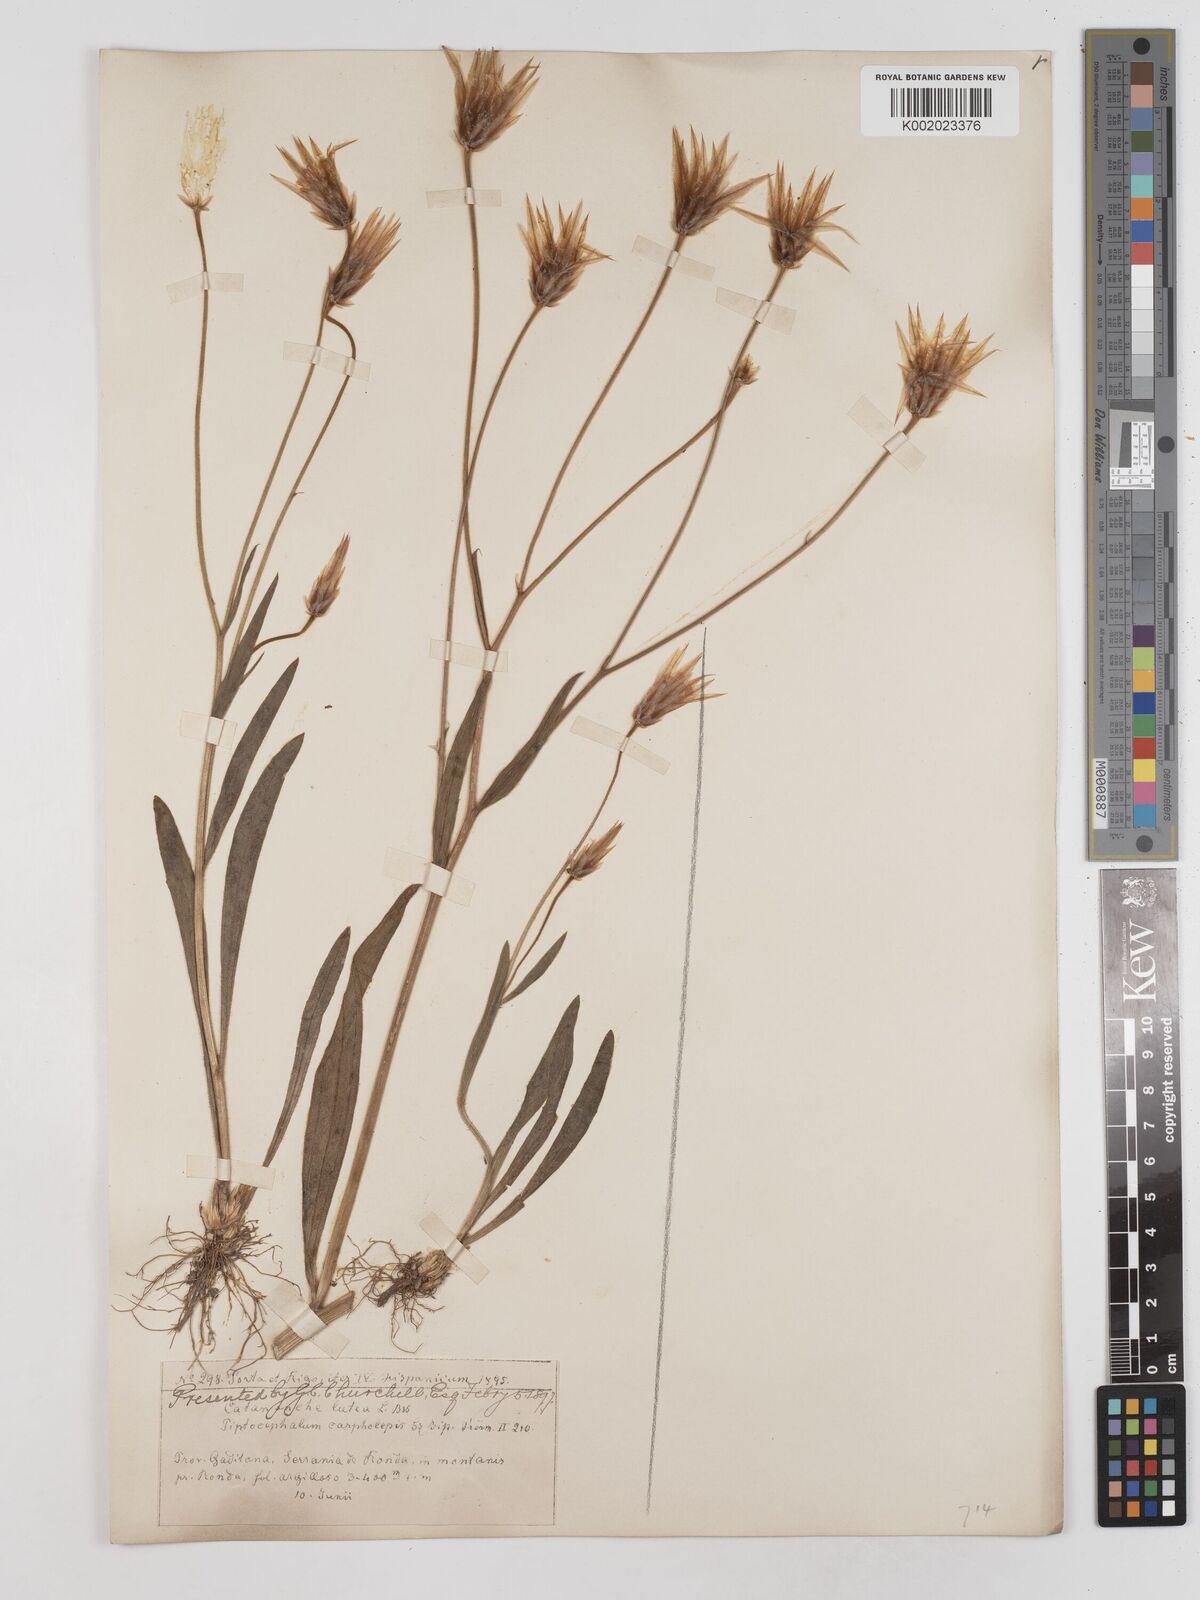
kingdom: Plantae
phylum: Tracheophyta
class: Magnoliopsida
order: Asterales
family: Asteraceae
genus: Catananche
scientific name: Catananche lutea
